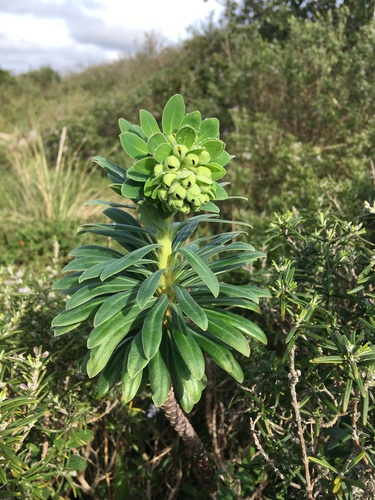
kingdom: Plantae
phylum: Tracheophyta
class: Magnoliopsida
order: Malpighiales
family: Euphorbiaceae
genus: Euphorbia
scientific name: Euphorbia characias
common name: Mediterranean spurge
